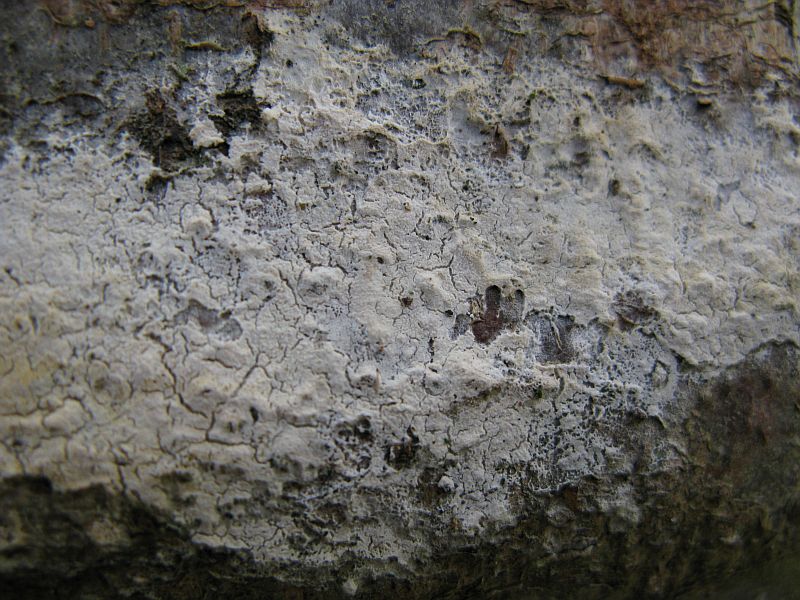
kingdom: Fungi
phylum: Basidiomycota
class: Agaricomycetes
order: Polyporales
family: Hyphodermataceae
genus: Hyphoderma
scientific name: Hyphoderma setigerum
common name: håret kalkskind
